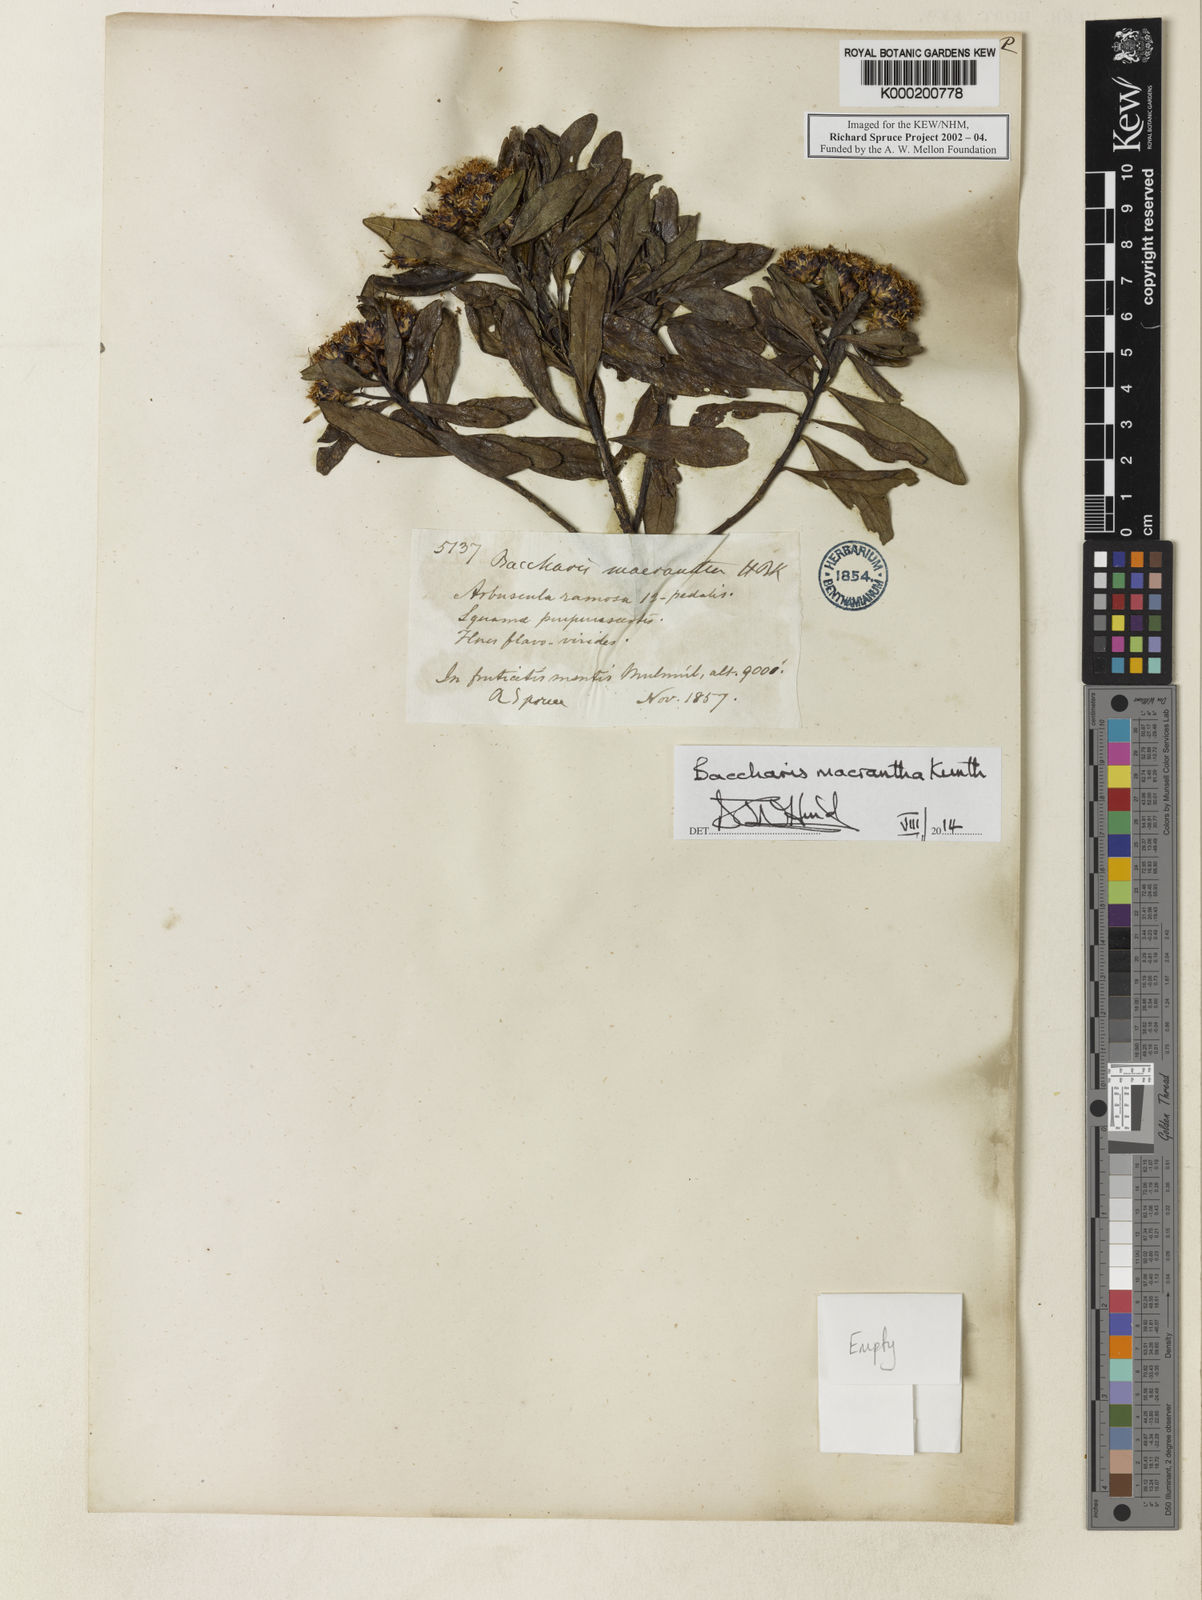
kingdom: Plantae
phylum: Tracheophyta
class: Magnoliopsida
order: Asterales
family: Asteraceae
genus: Baccharis
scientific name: Baccharis macrantha
